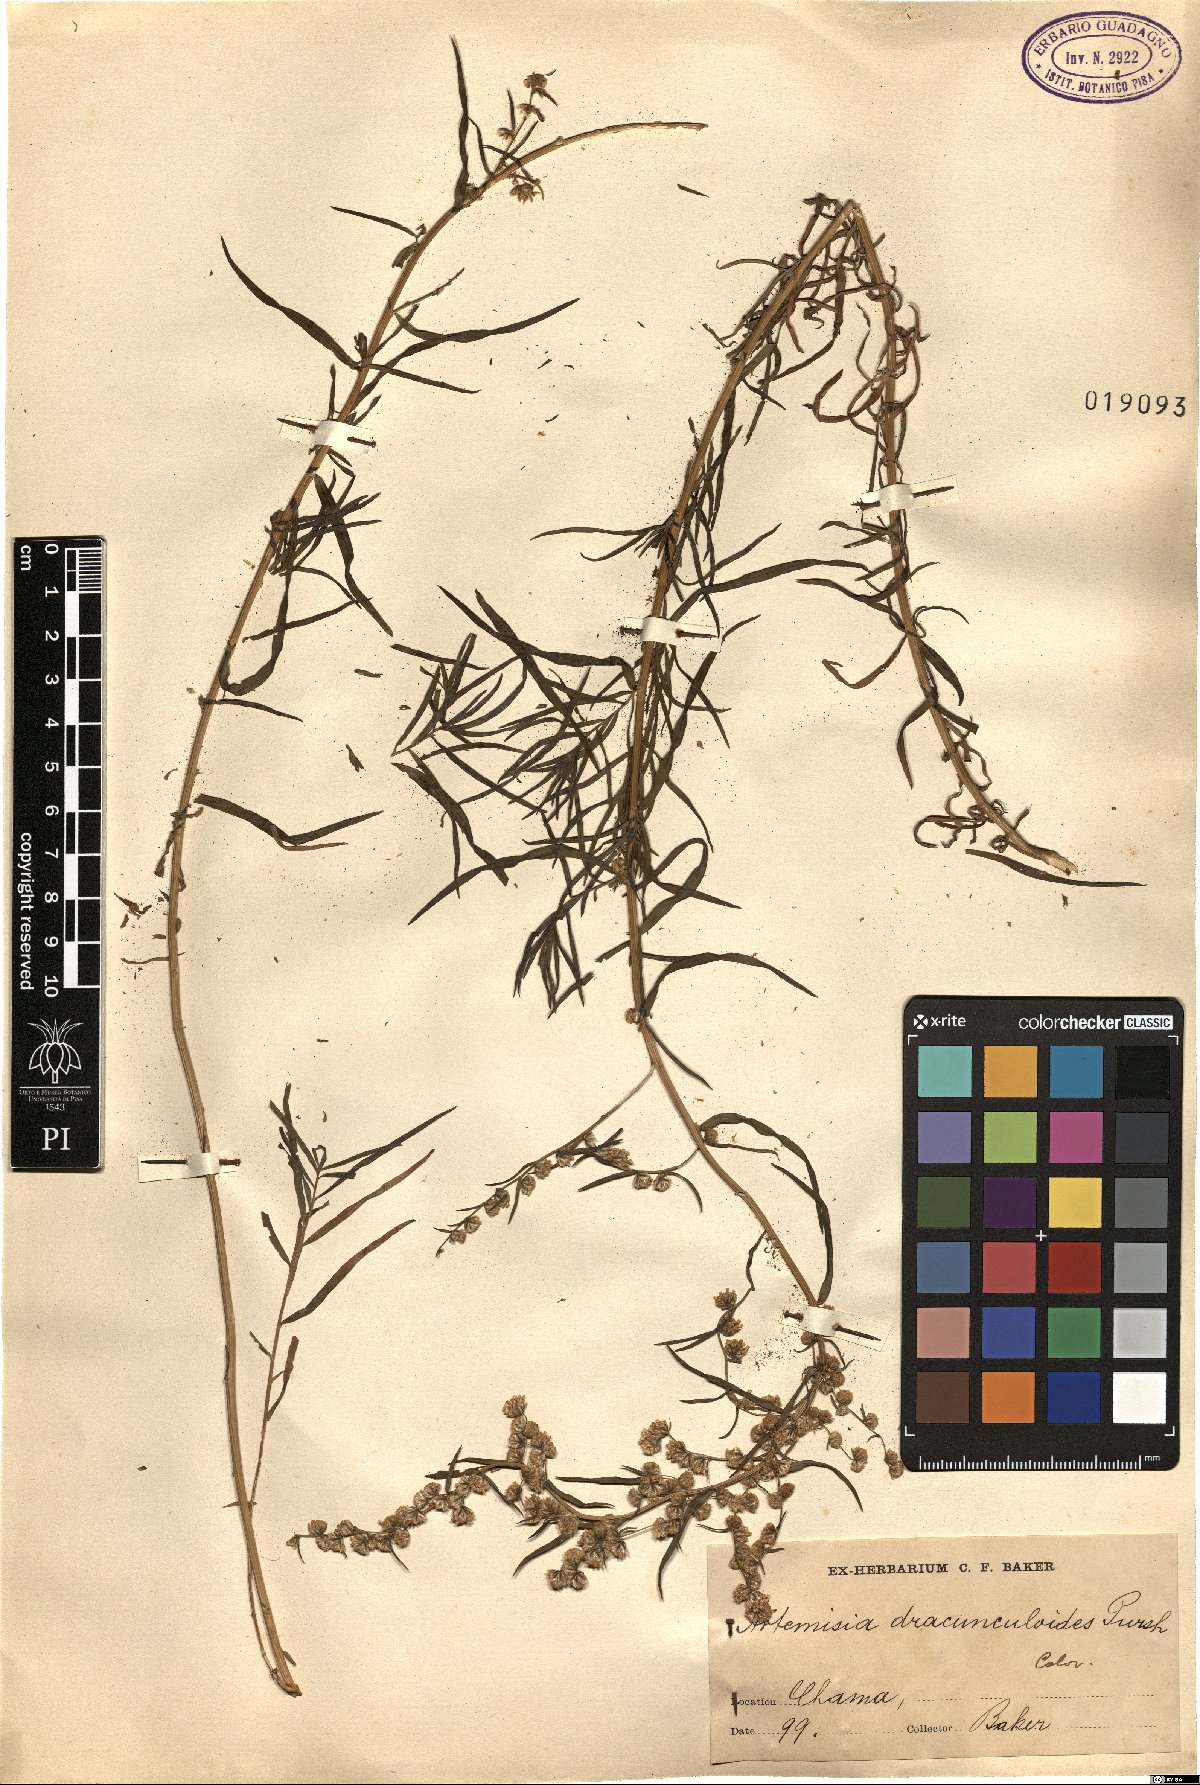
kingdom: Plantae
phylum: Tracheophyta
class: Magnoliopsida
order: Asterales
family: Asteraceae
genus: Artemisia
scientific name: Artemisia dracunculus
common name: Tarragon
